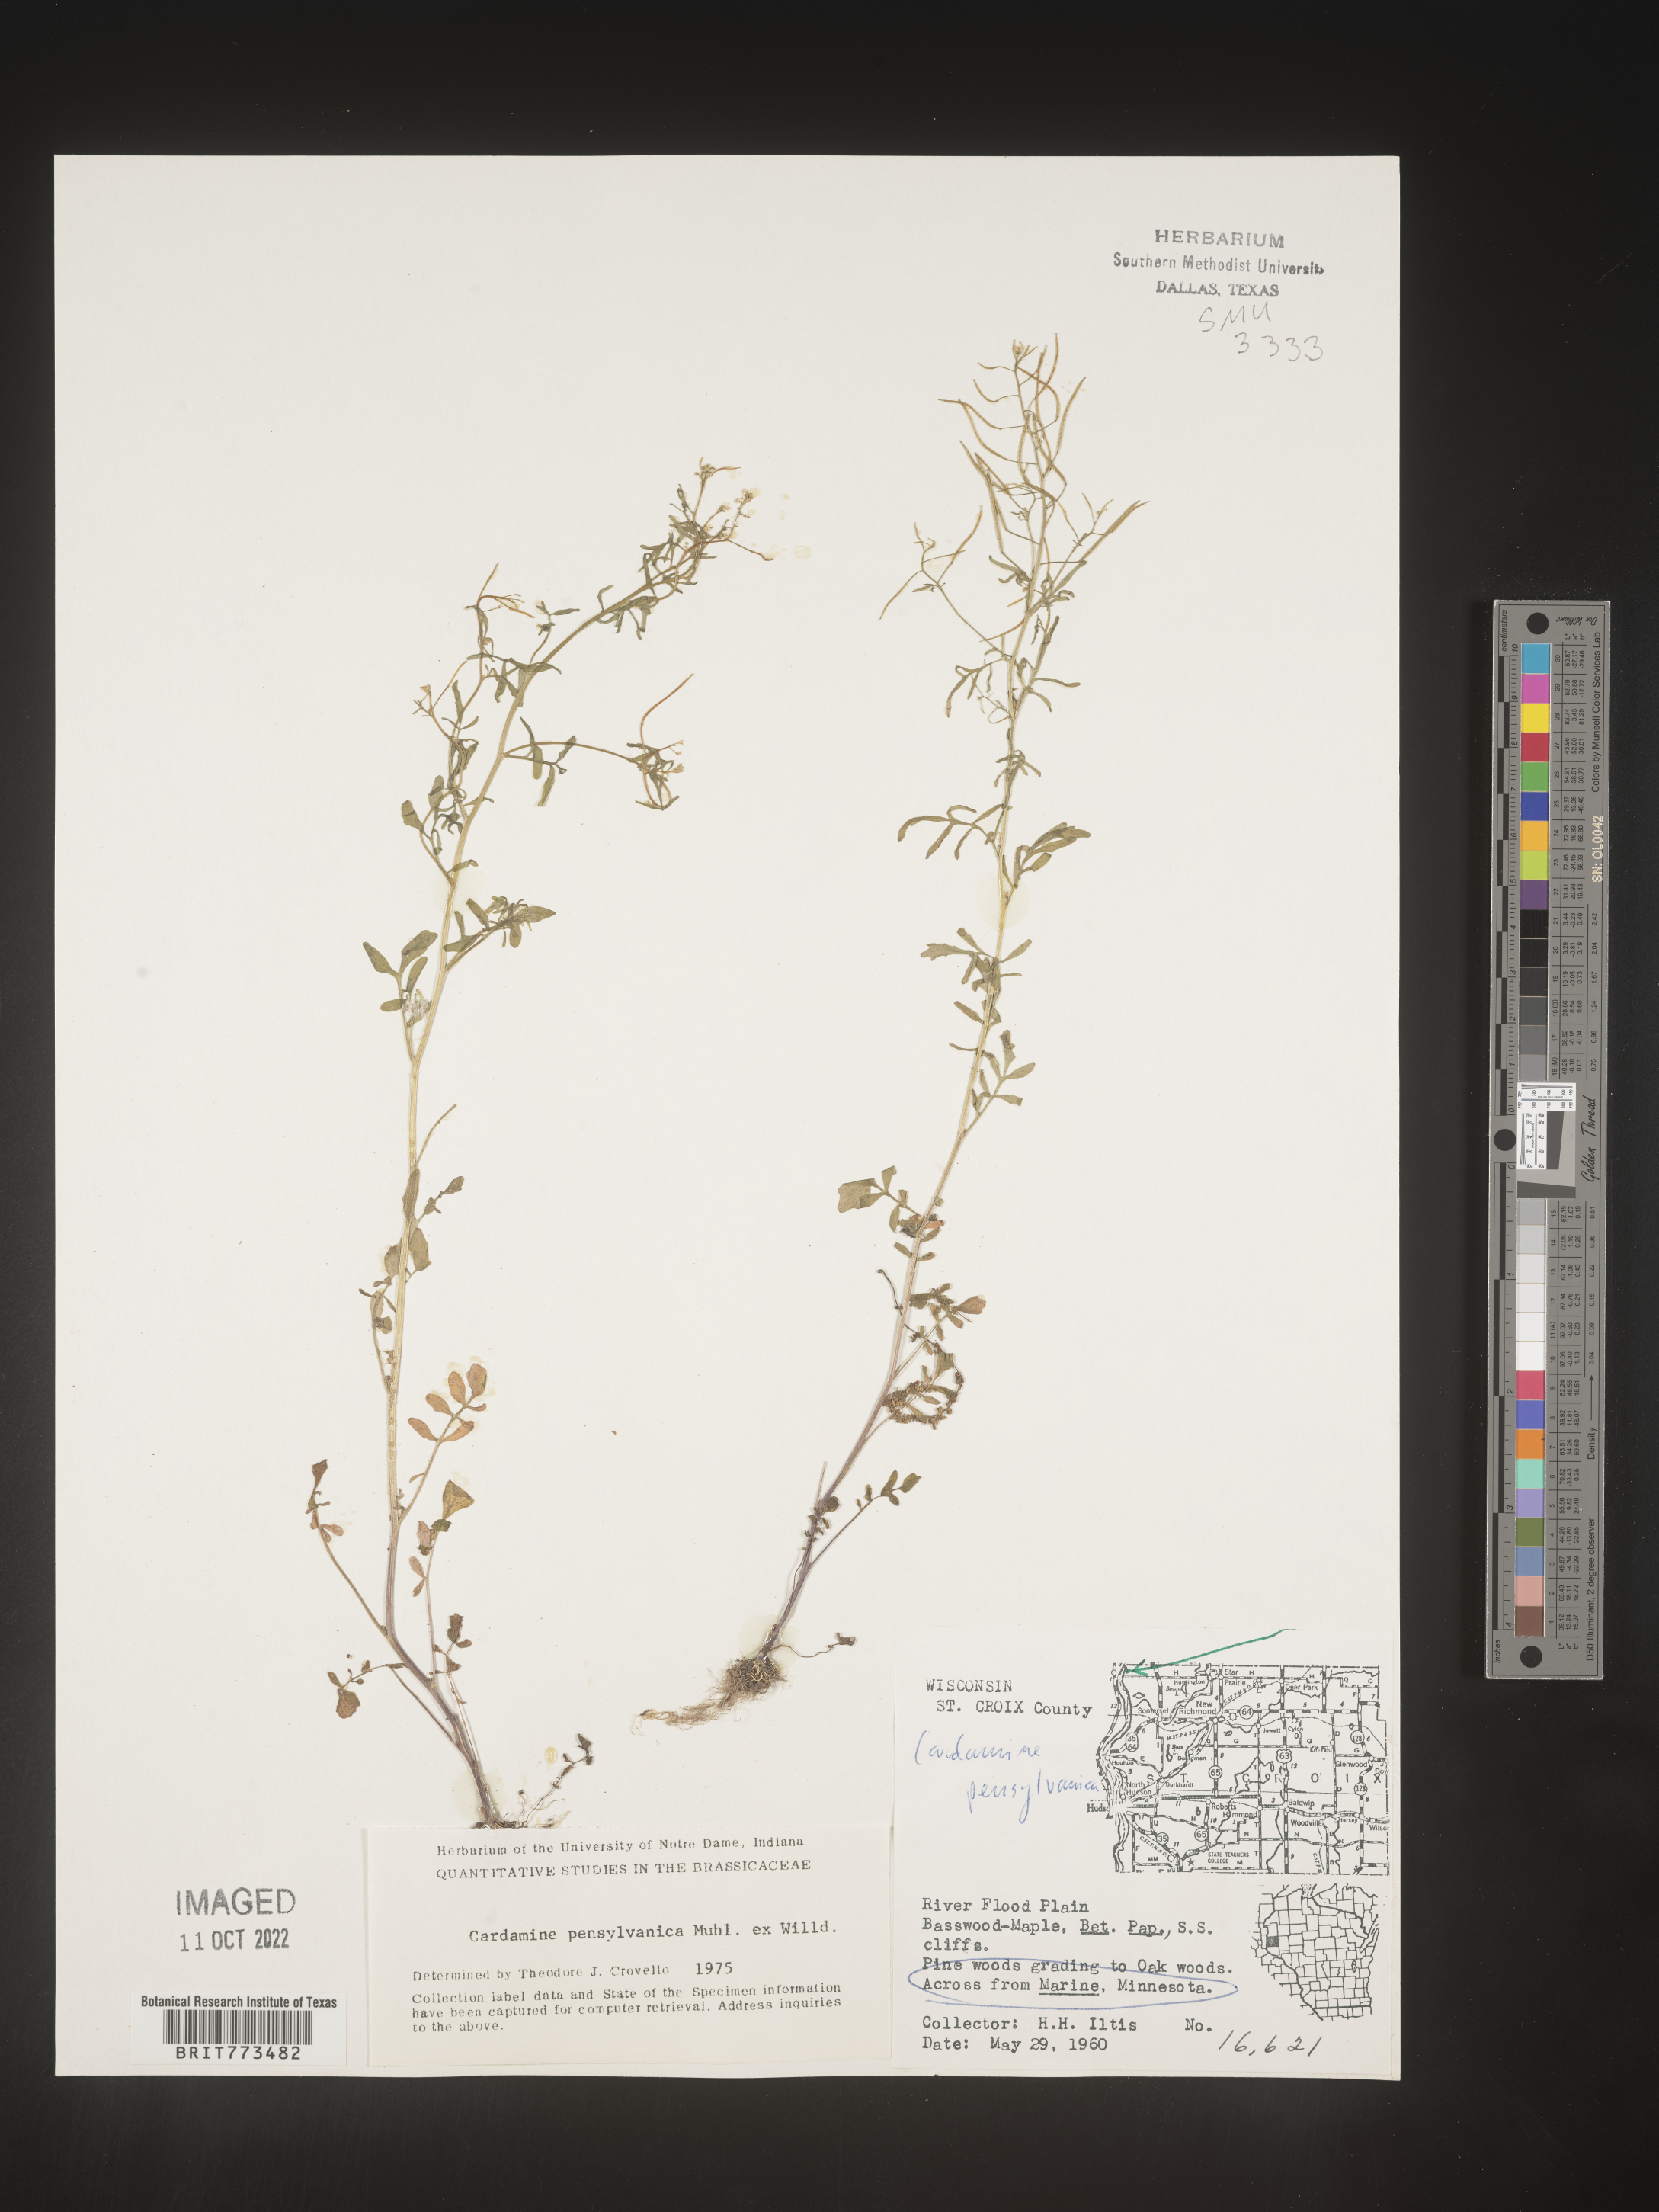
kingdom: Plantae
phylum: Tracheophyta
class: Magnoliopsida
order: Brassicales
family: Brassicaceae
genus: Cardamine
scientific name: Cardamine pensylvanica
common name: Pennsylvania bittercress
